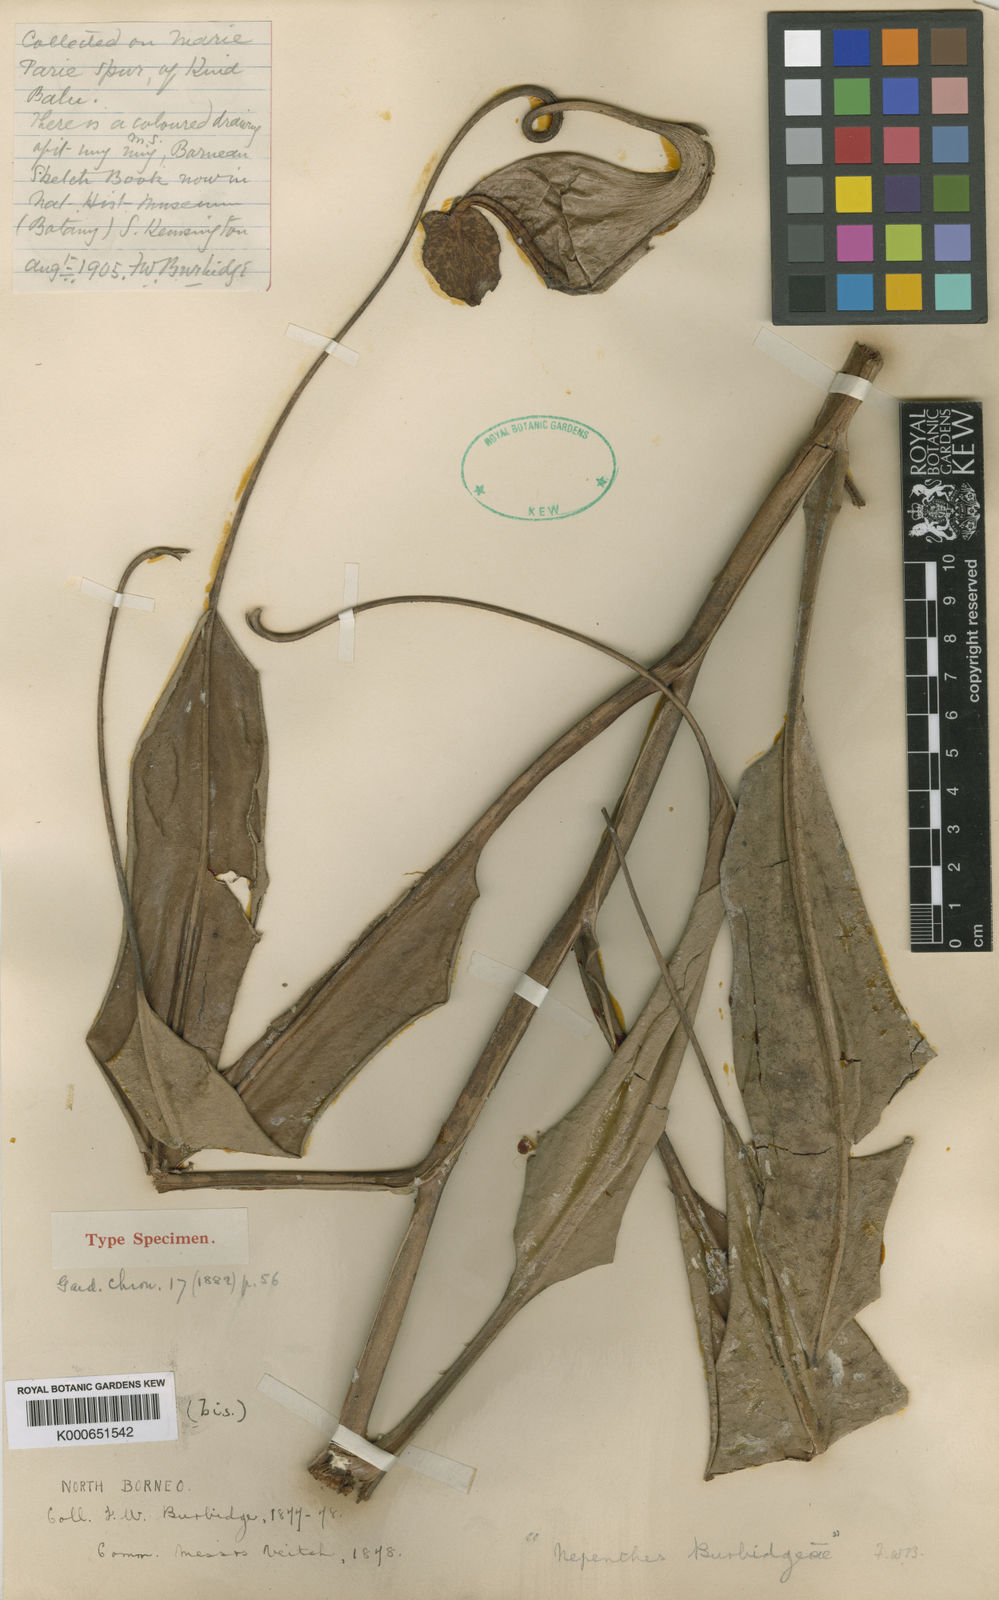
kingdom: Plantae
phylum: Tracheophyta
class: Magnoliopsida
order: Caryophyllales
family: Nepenthaceae
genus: Nepenthes
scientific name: Nepenthes
